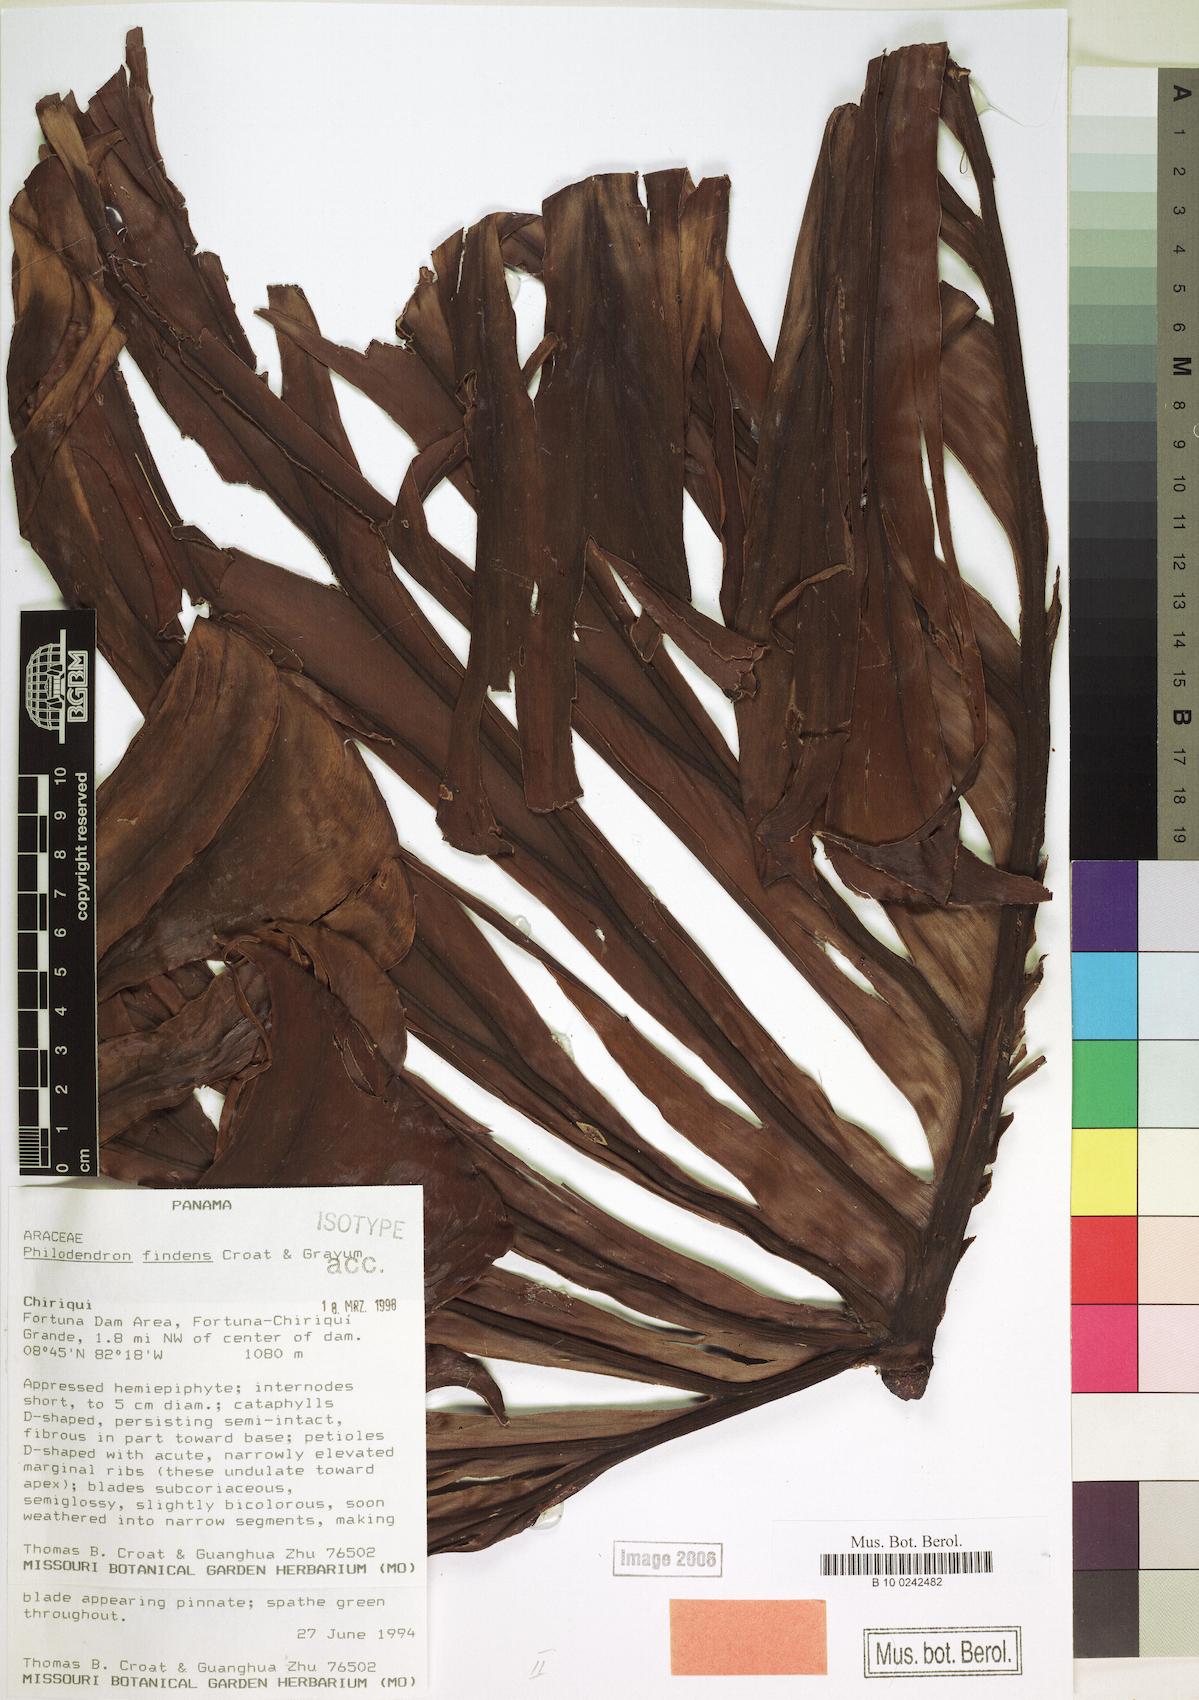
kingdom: Plantae
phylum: Tracheophyta
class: Liliopsida
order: Alismatales
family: Araceae
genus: Philodendron
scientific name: Philodendron findens
